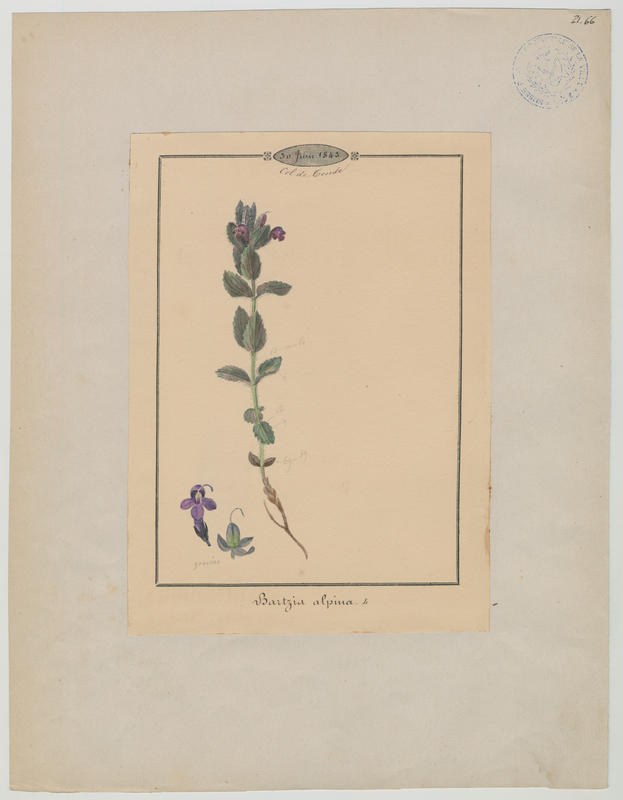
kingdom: Plantae
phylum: Tracheophyta
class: Magnoliopsida
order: Lamiales
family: Orobanchaceae
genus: Bartsia
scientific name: Bartsia alpina
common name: Alpine bartsia
